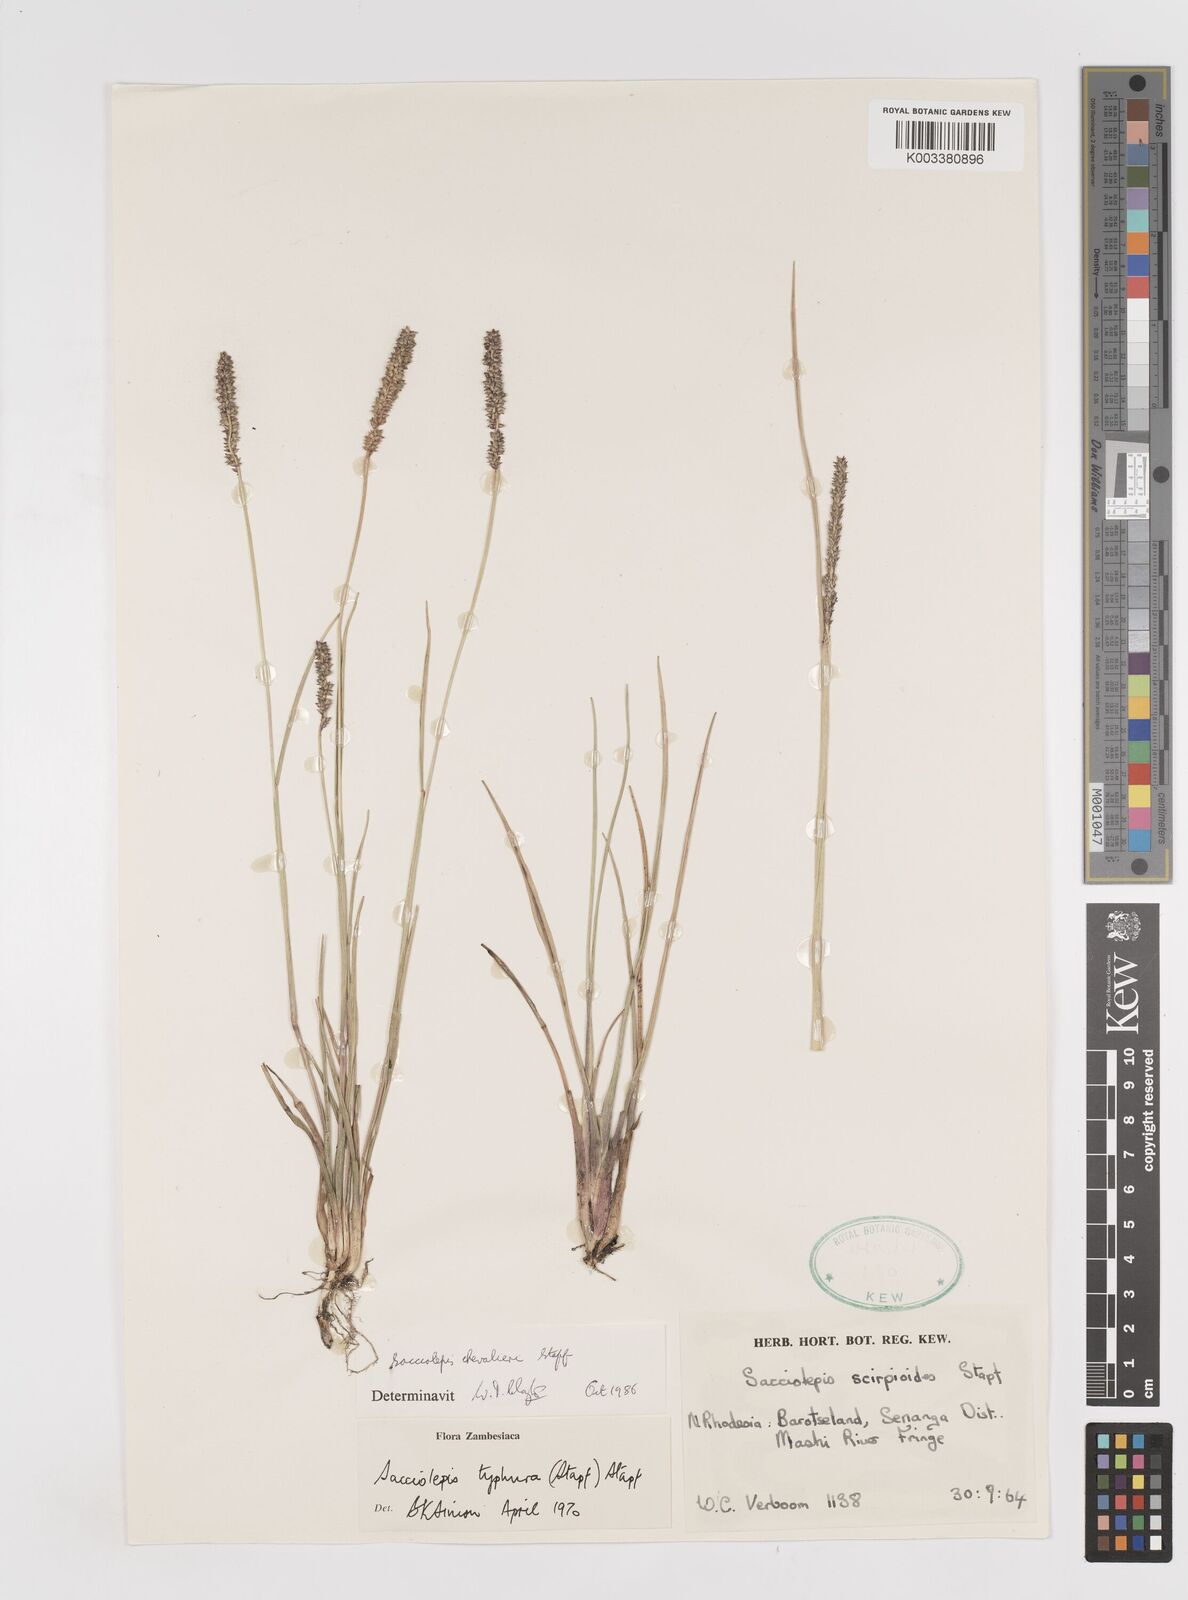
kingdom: Plantae
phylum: Tracheophyta
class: Liliopsida
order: Poales
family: Poaceae
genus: Sacciolepis
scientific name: Sacciolepis chevalieri
